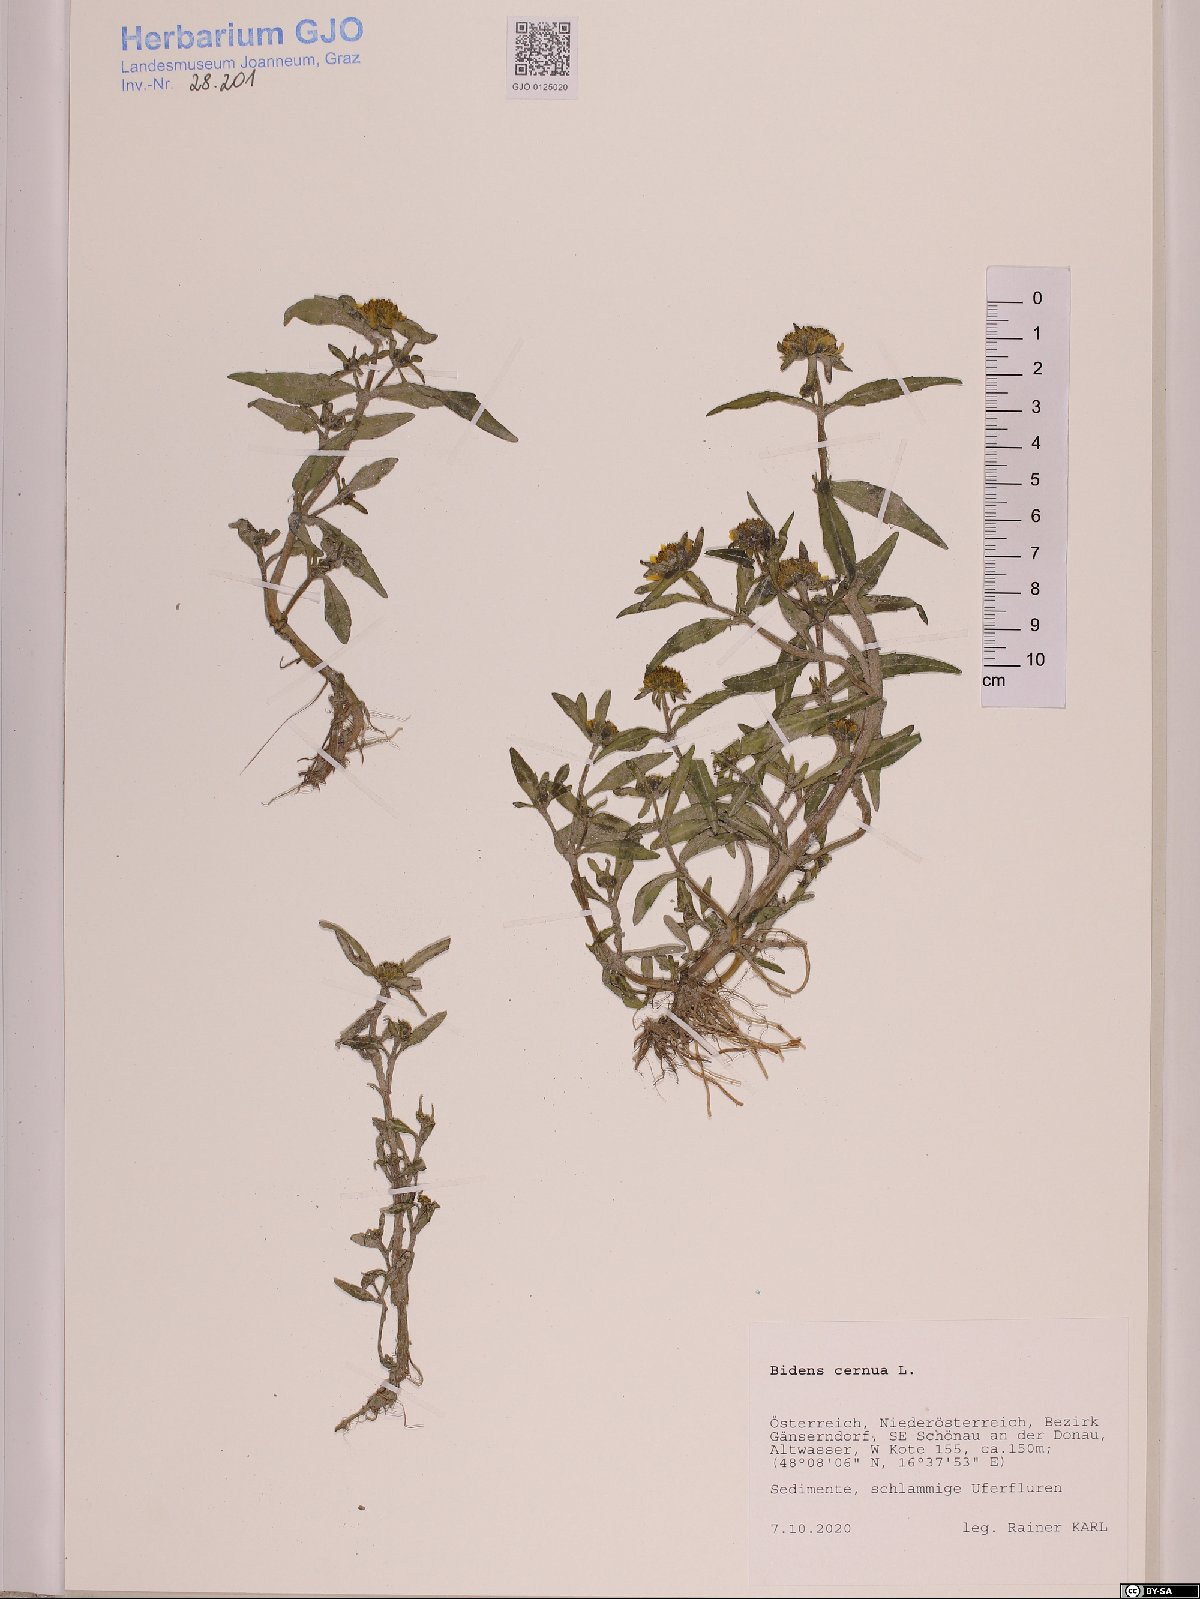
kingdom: Plantae
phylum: Tracheophyta
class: Magnoliopsida
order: Asterales
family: Asteraceae
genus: Bidens
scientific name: Bidens cernua
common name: Nodding bur-marigold
